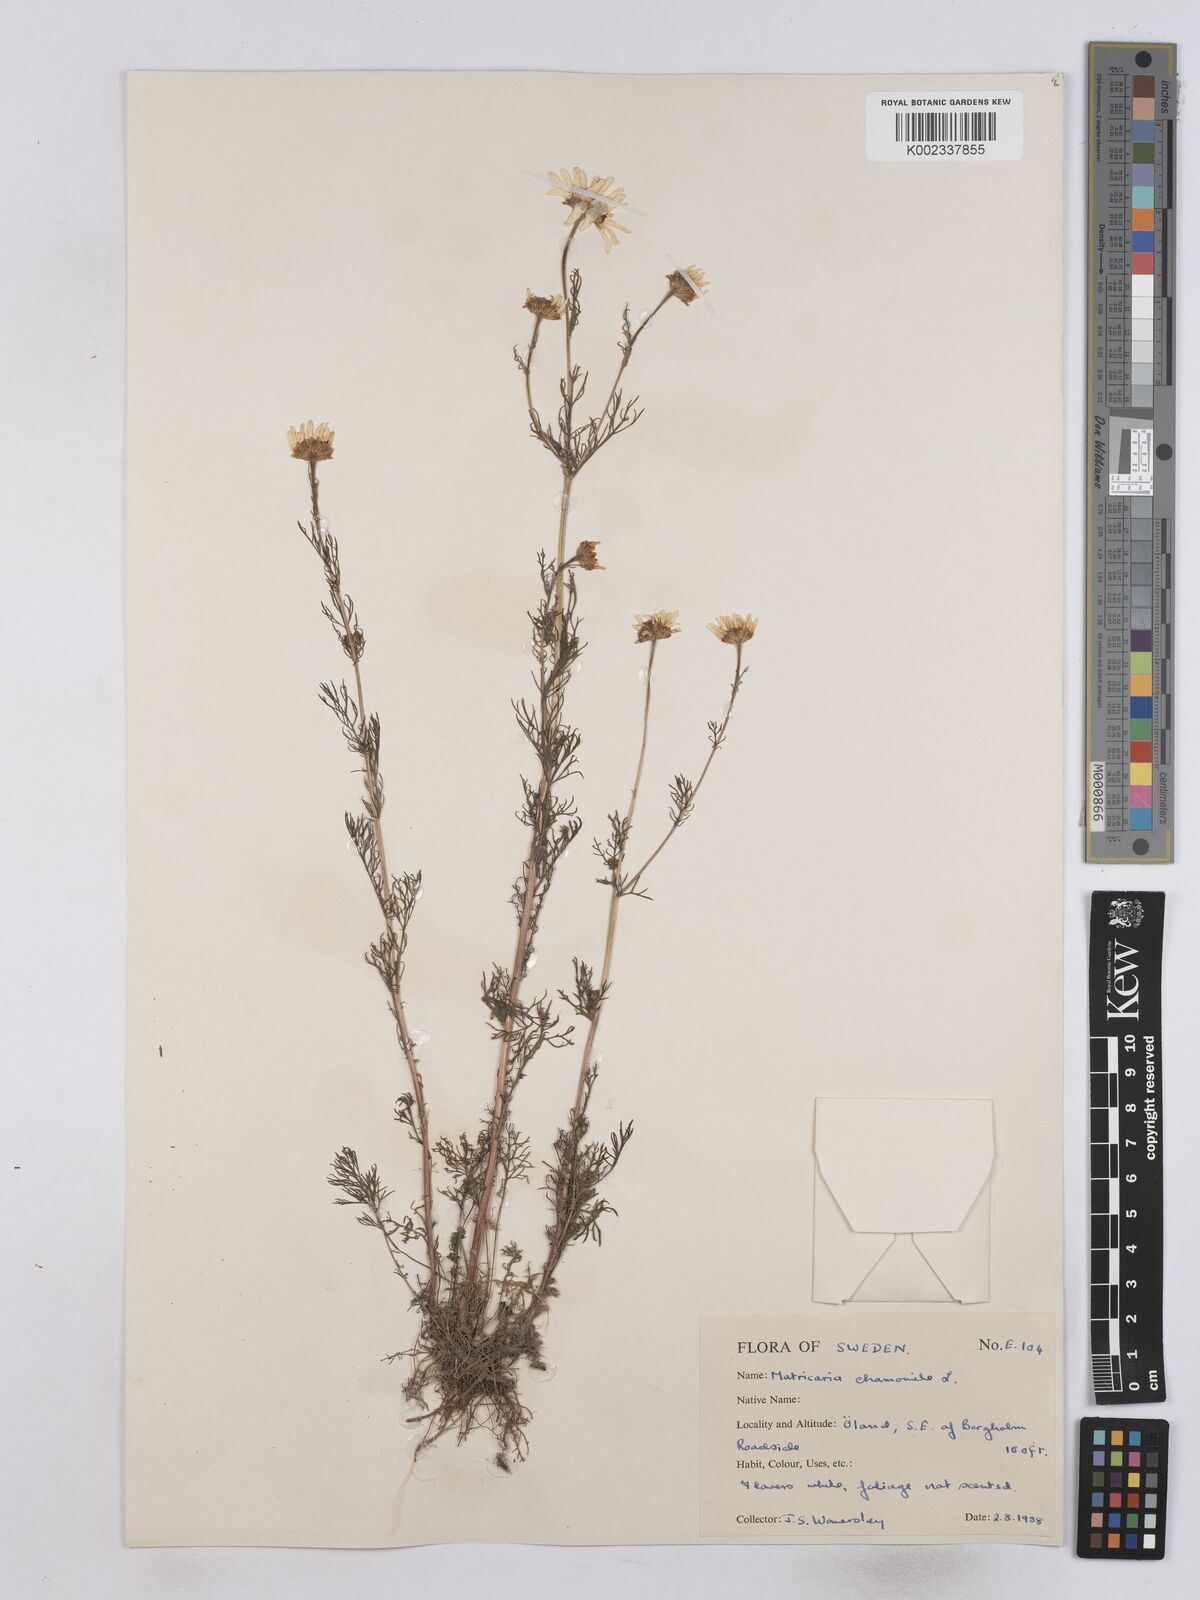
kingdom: Plantae
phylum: Tracheophyta
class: Magnoliopsida
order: Asterales
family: Asteraceae
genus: Matricaria
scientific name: Matricaria chamomilla
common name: Scented mayweed
